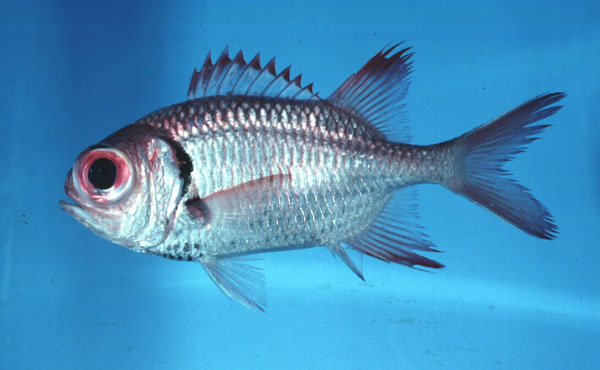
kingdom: Animalia
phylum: Chordata
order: Beryciformes
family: Holocentridae
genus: Myripristis
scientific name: Myripristis seychellensis
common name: Seychelles soldier
